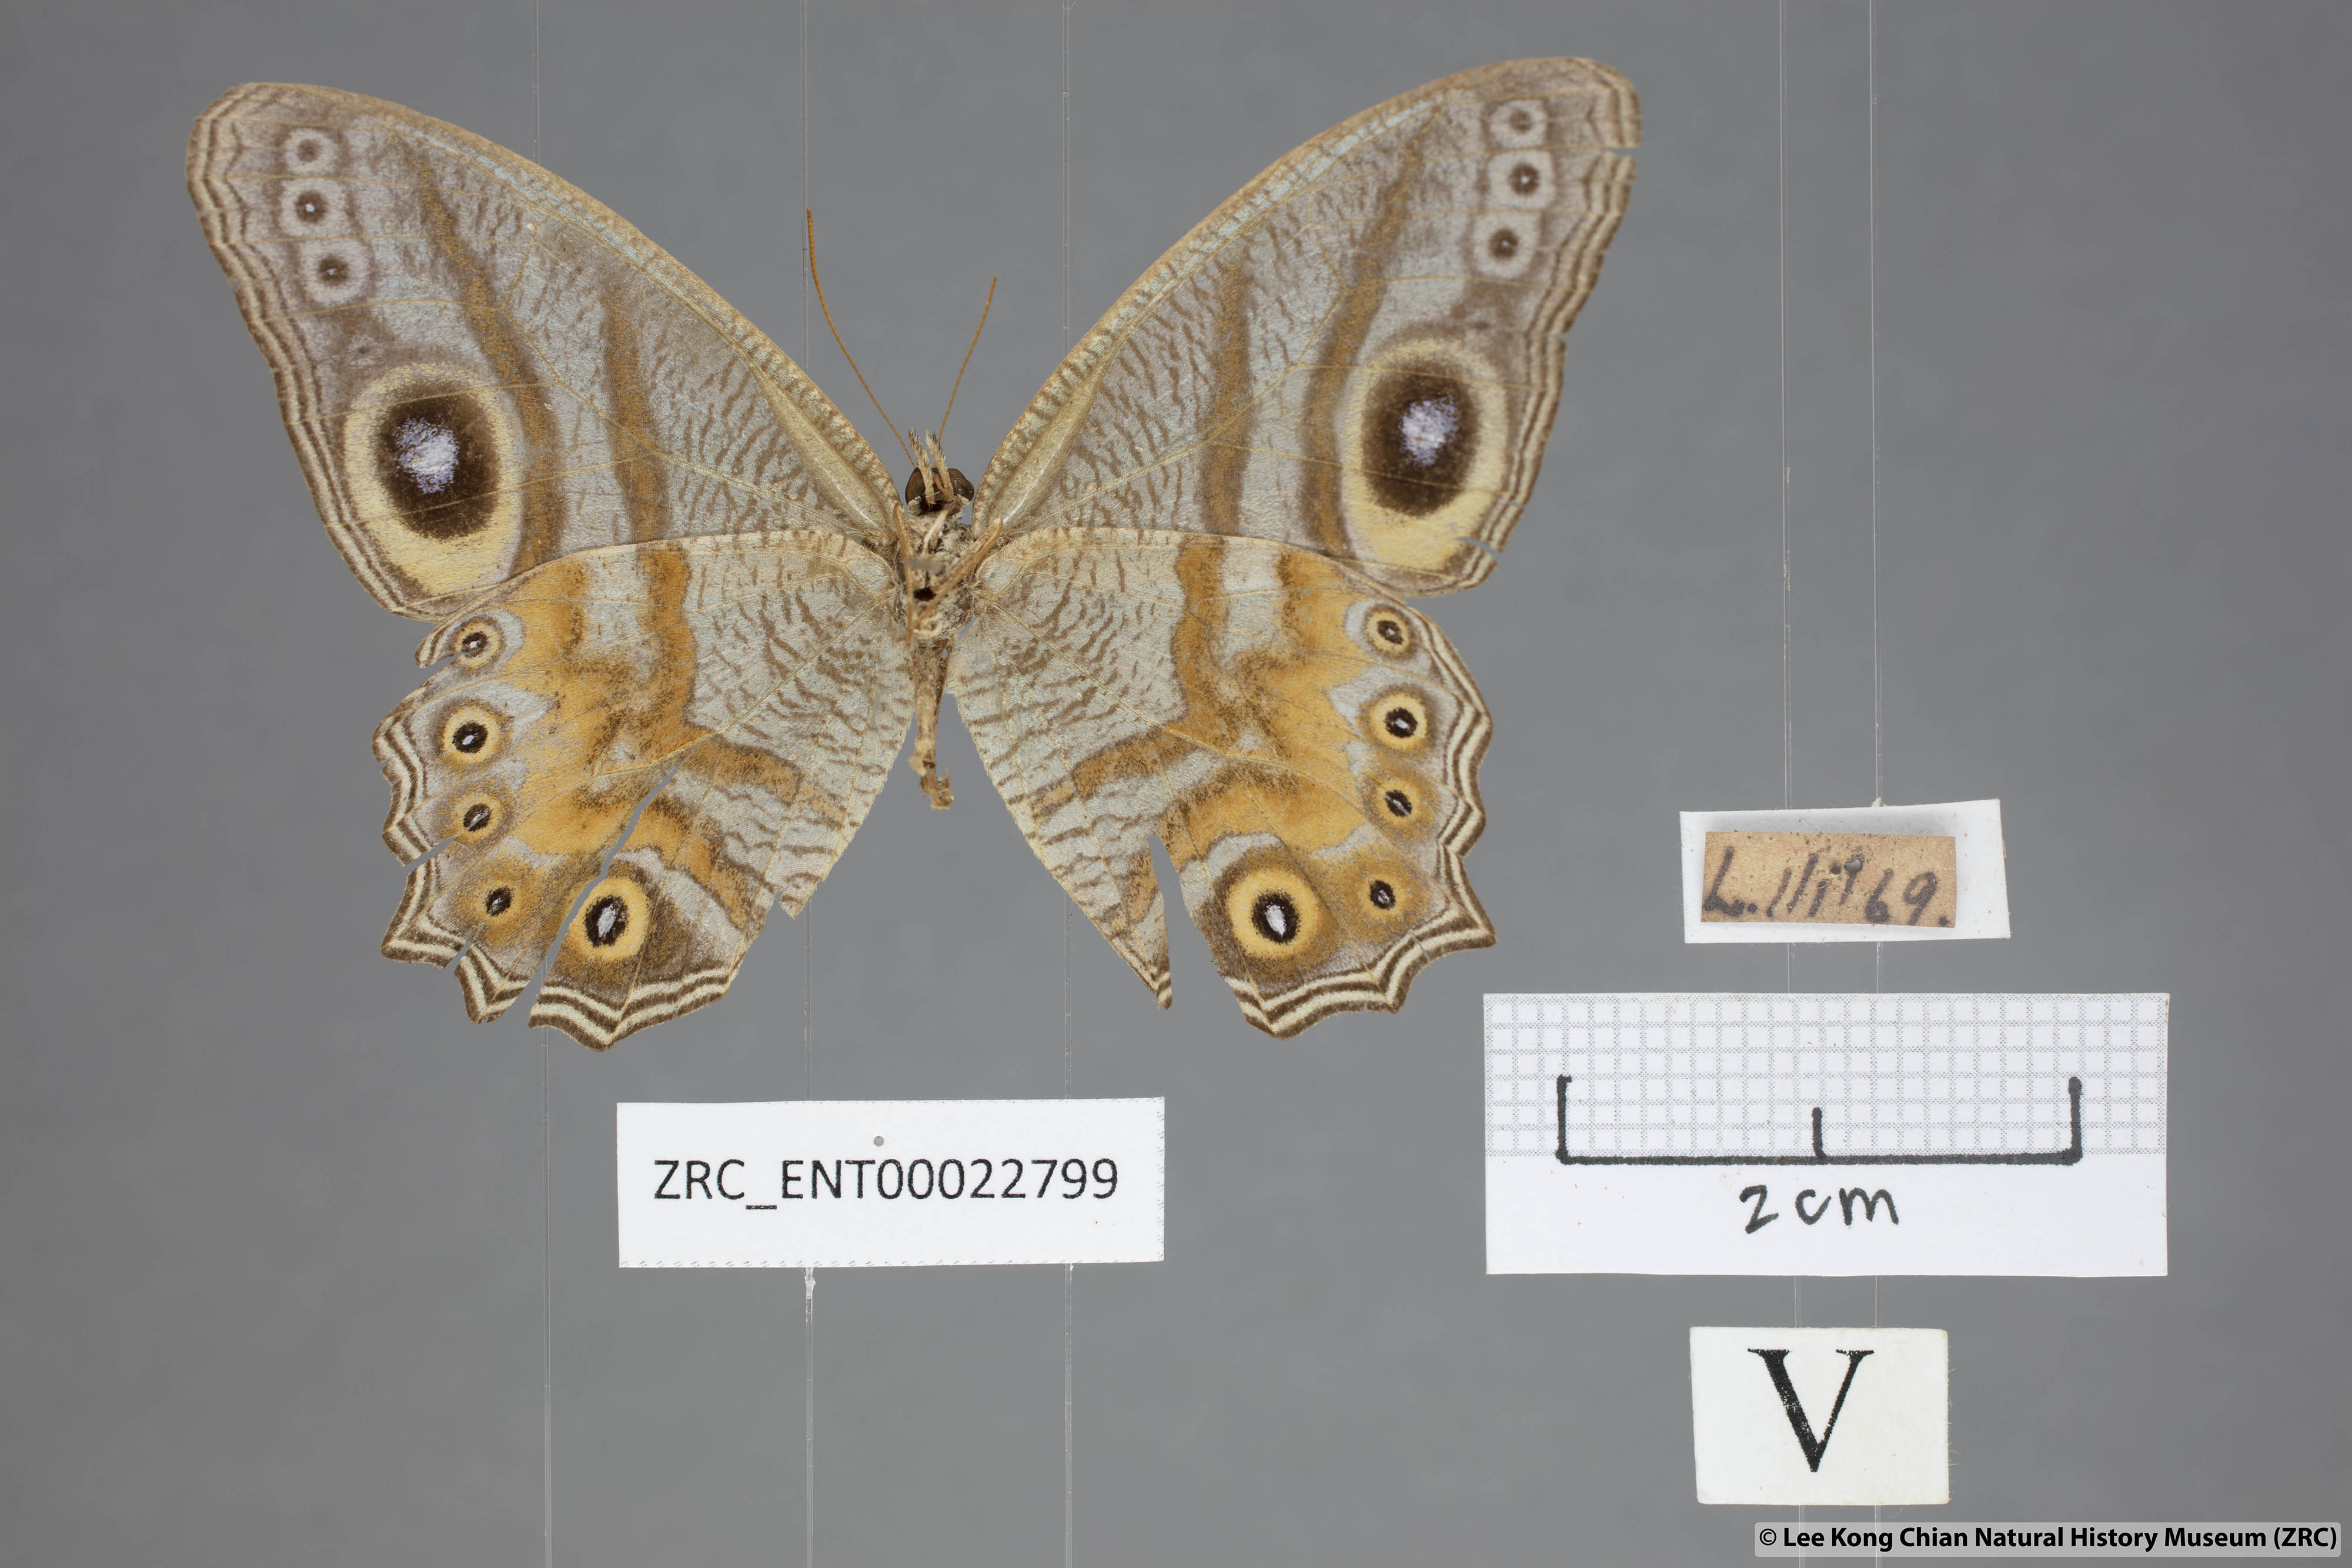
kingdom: Animalia
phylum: Arthropoda
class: Insecta
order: Lepidoptera
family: Nymphalidae
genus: Erites
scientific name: Erites angularis
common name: Angled cyclops
